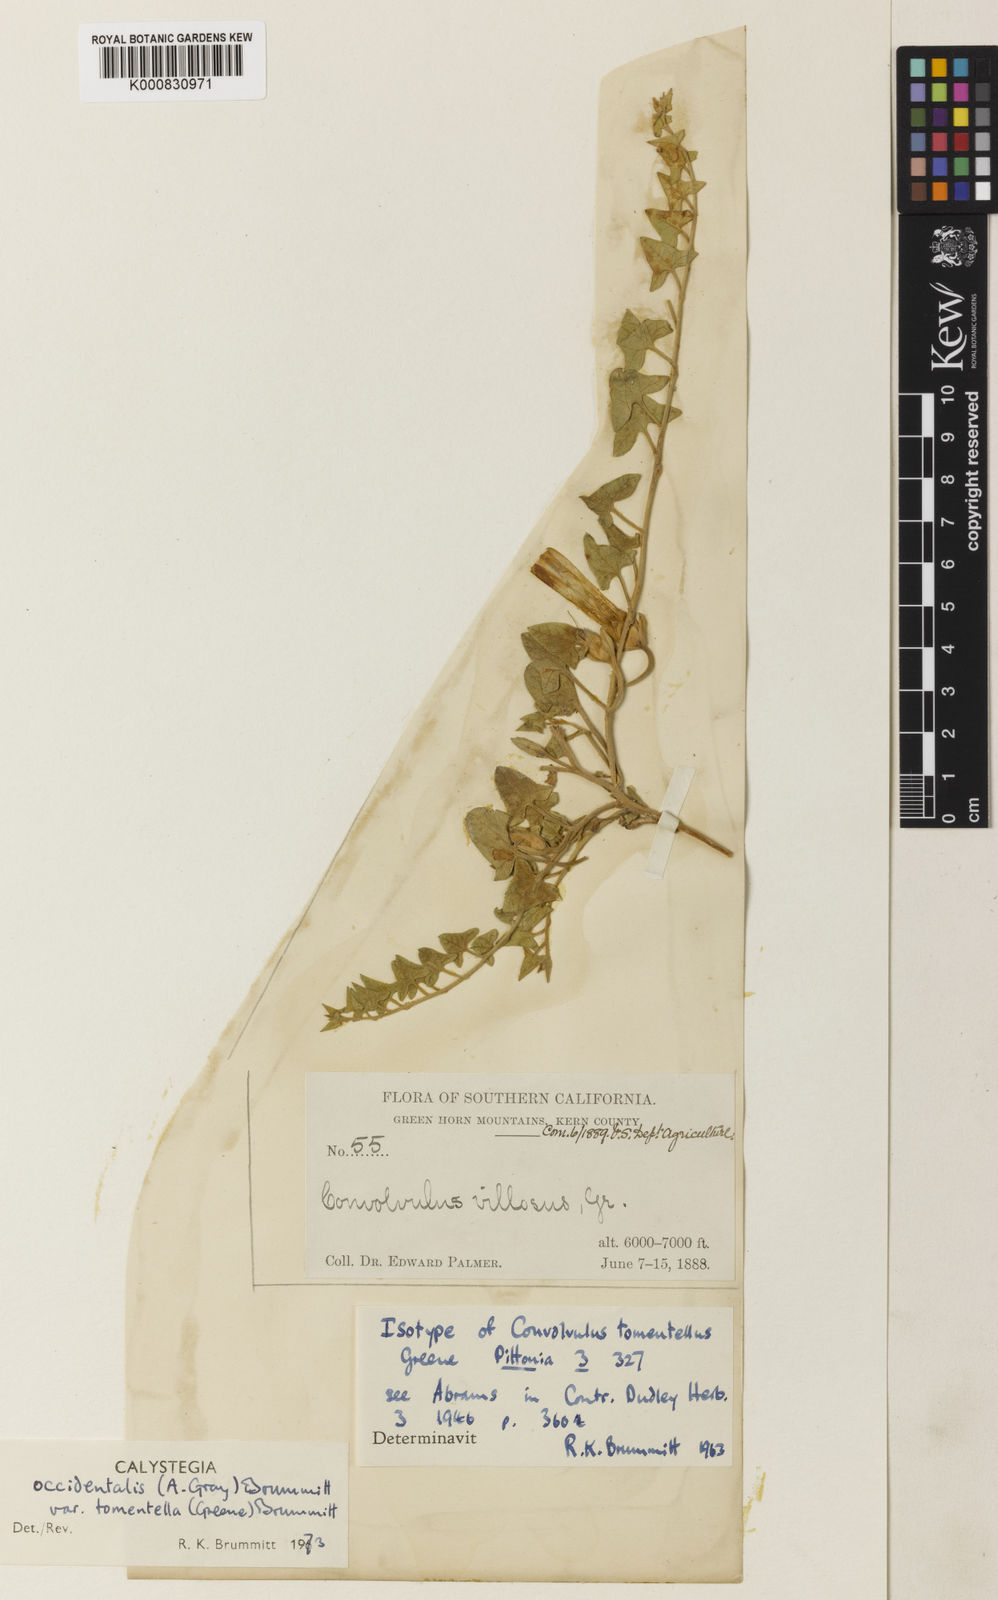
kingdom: Plantae
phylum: Tracheophyta
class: Magnoliopsida
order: Solanales
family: Convolvulaceae
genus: Calystegia
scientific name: Calystegia occidentalis
